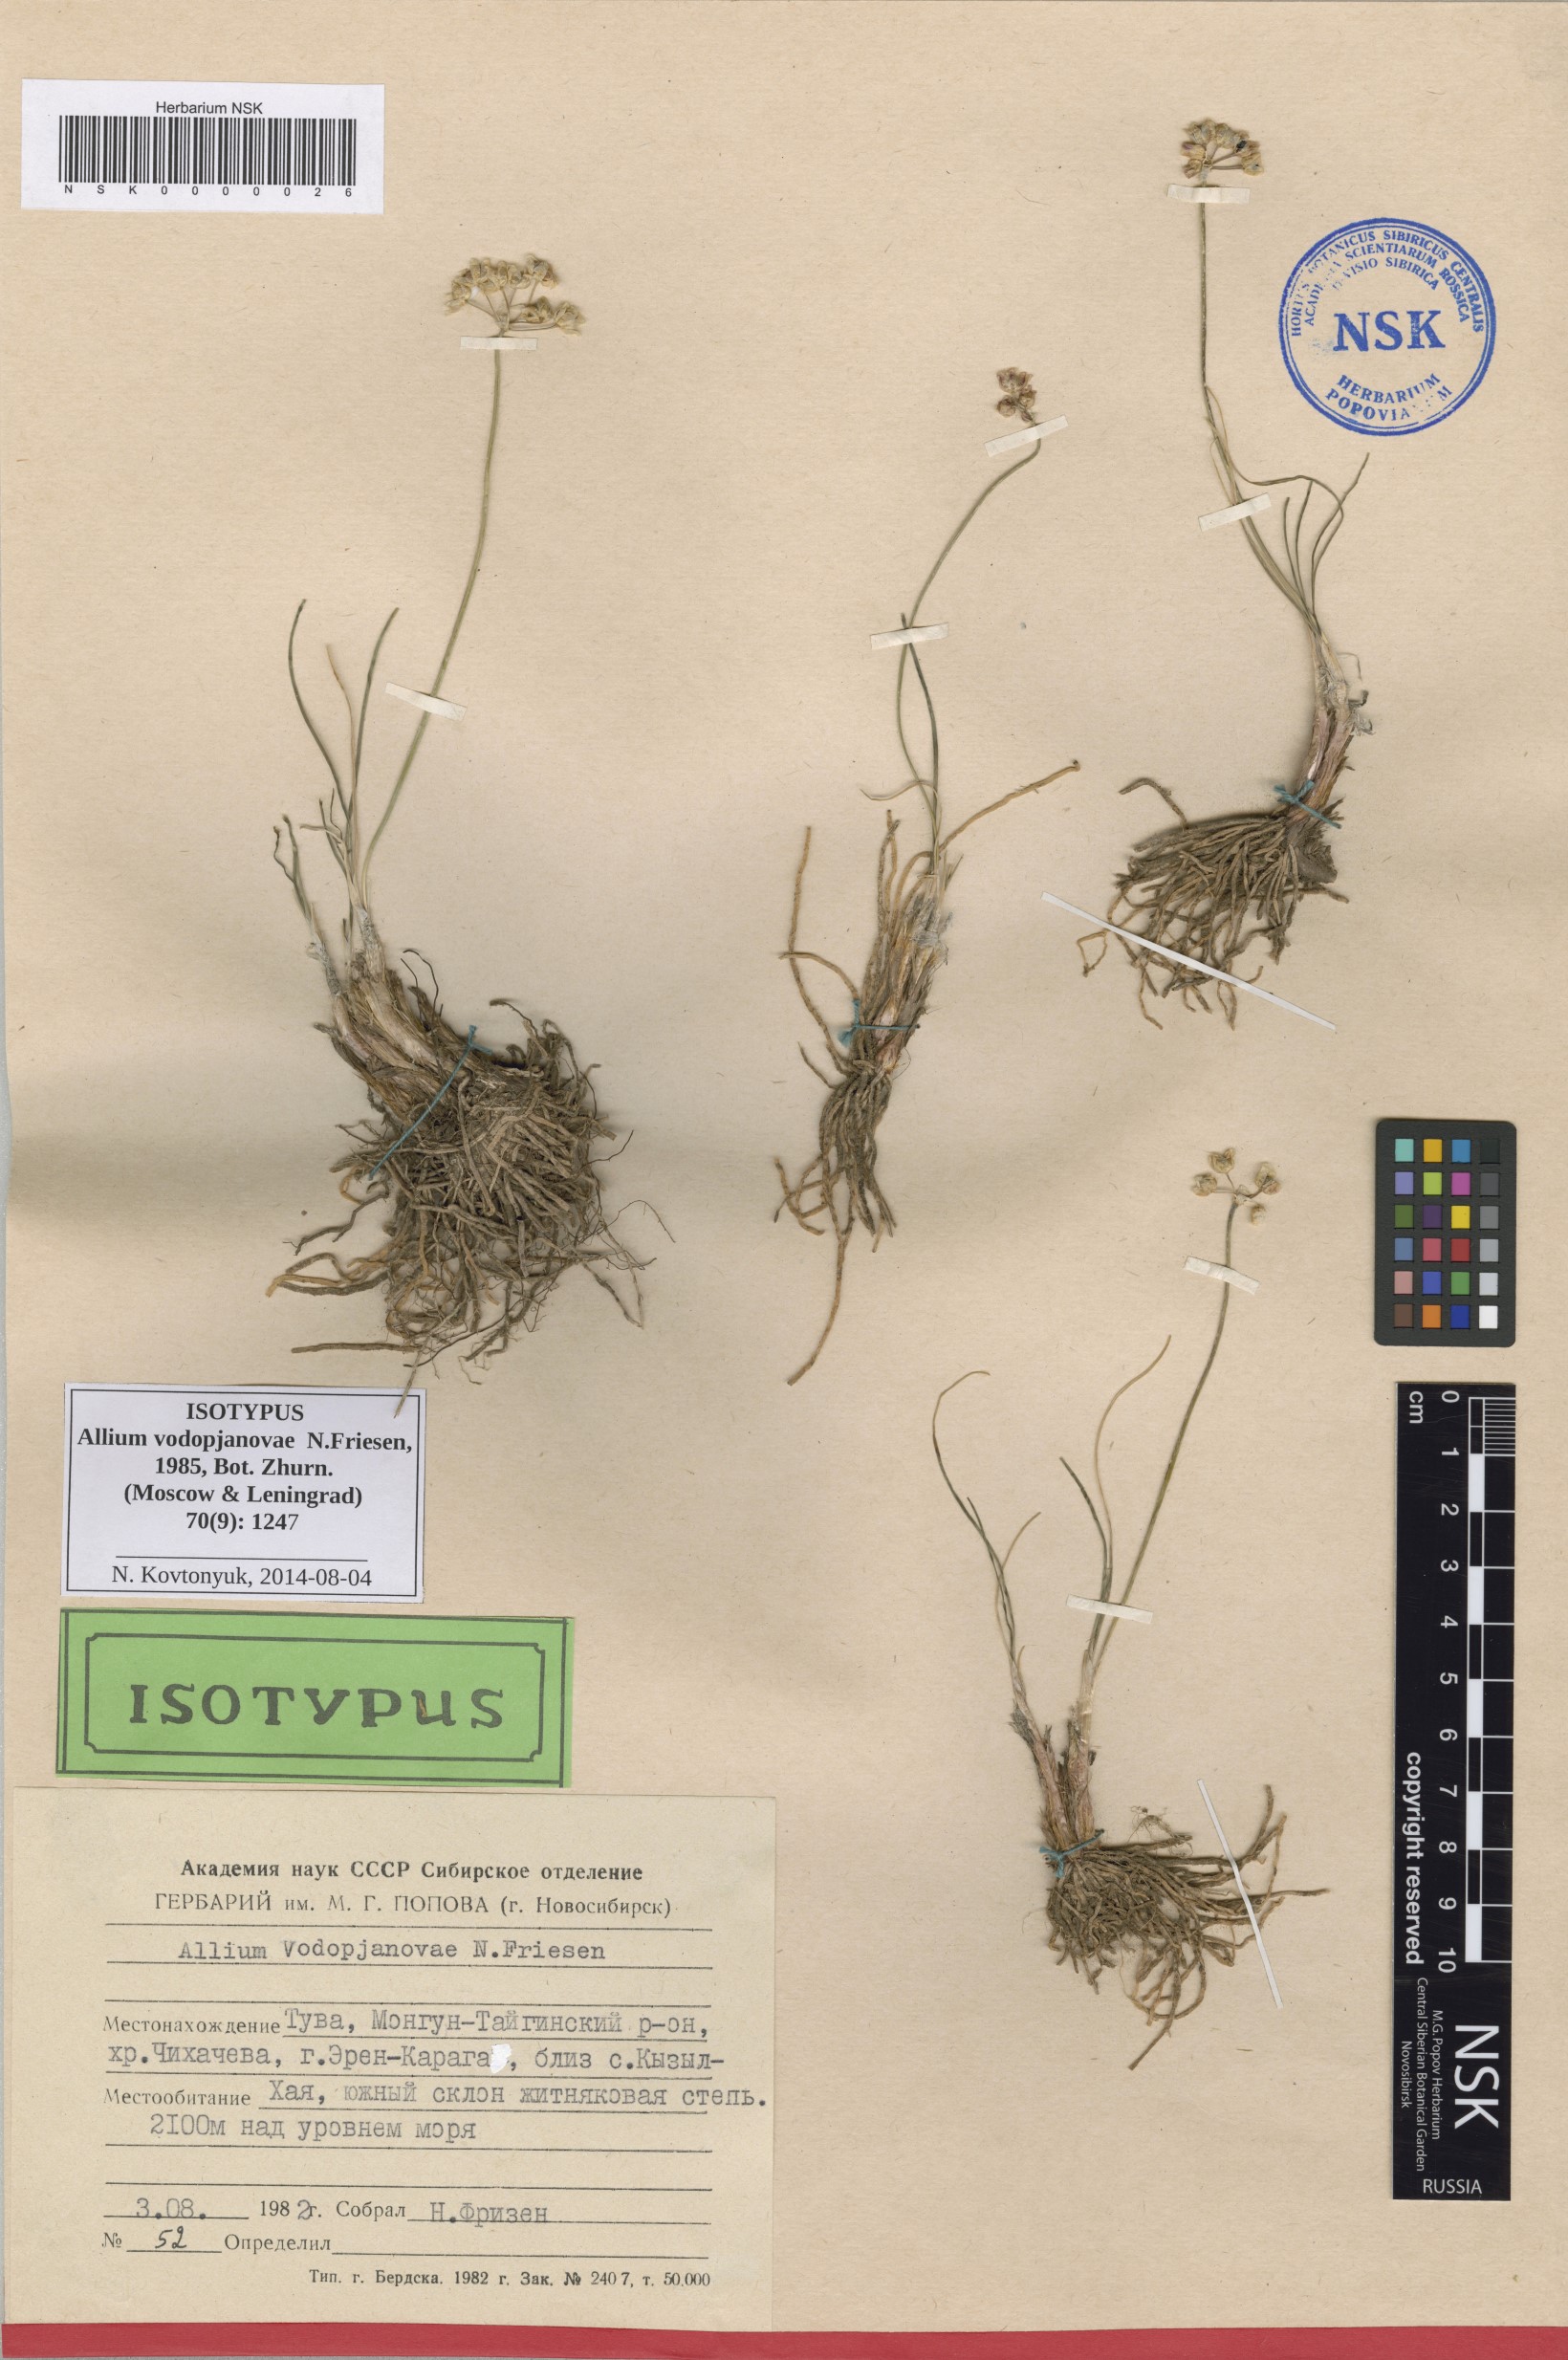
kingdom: Plantae
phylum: Tracheophyta
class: Liliopsida
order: Asparagales
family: Amaryllidaceae
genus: Allium
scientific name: Allium vodopjanovae
